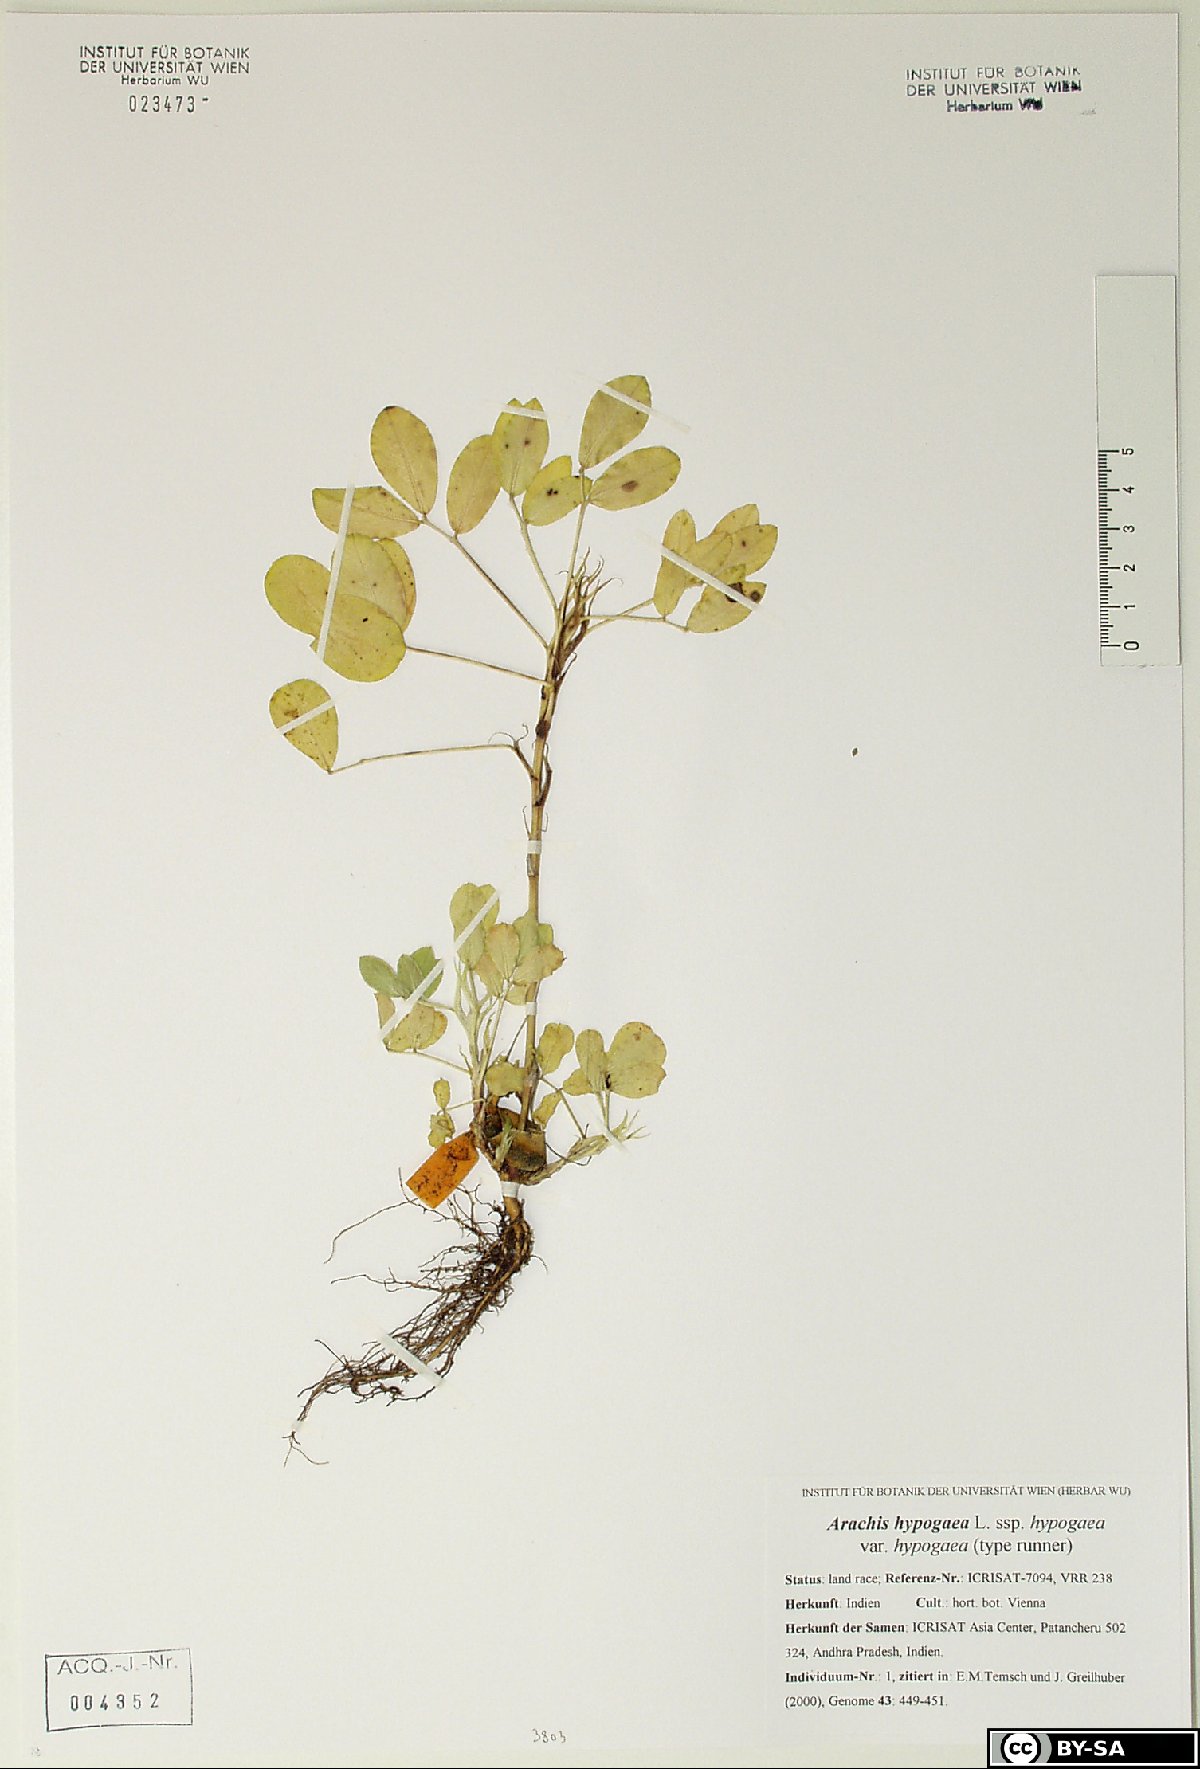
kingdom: Plantae
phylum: Tracheophyta
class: Magnoliopsida
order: Fabales
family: Fabaceae
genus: Arachis
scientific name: Arachis hypogaea
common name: Peanut
